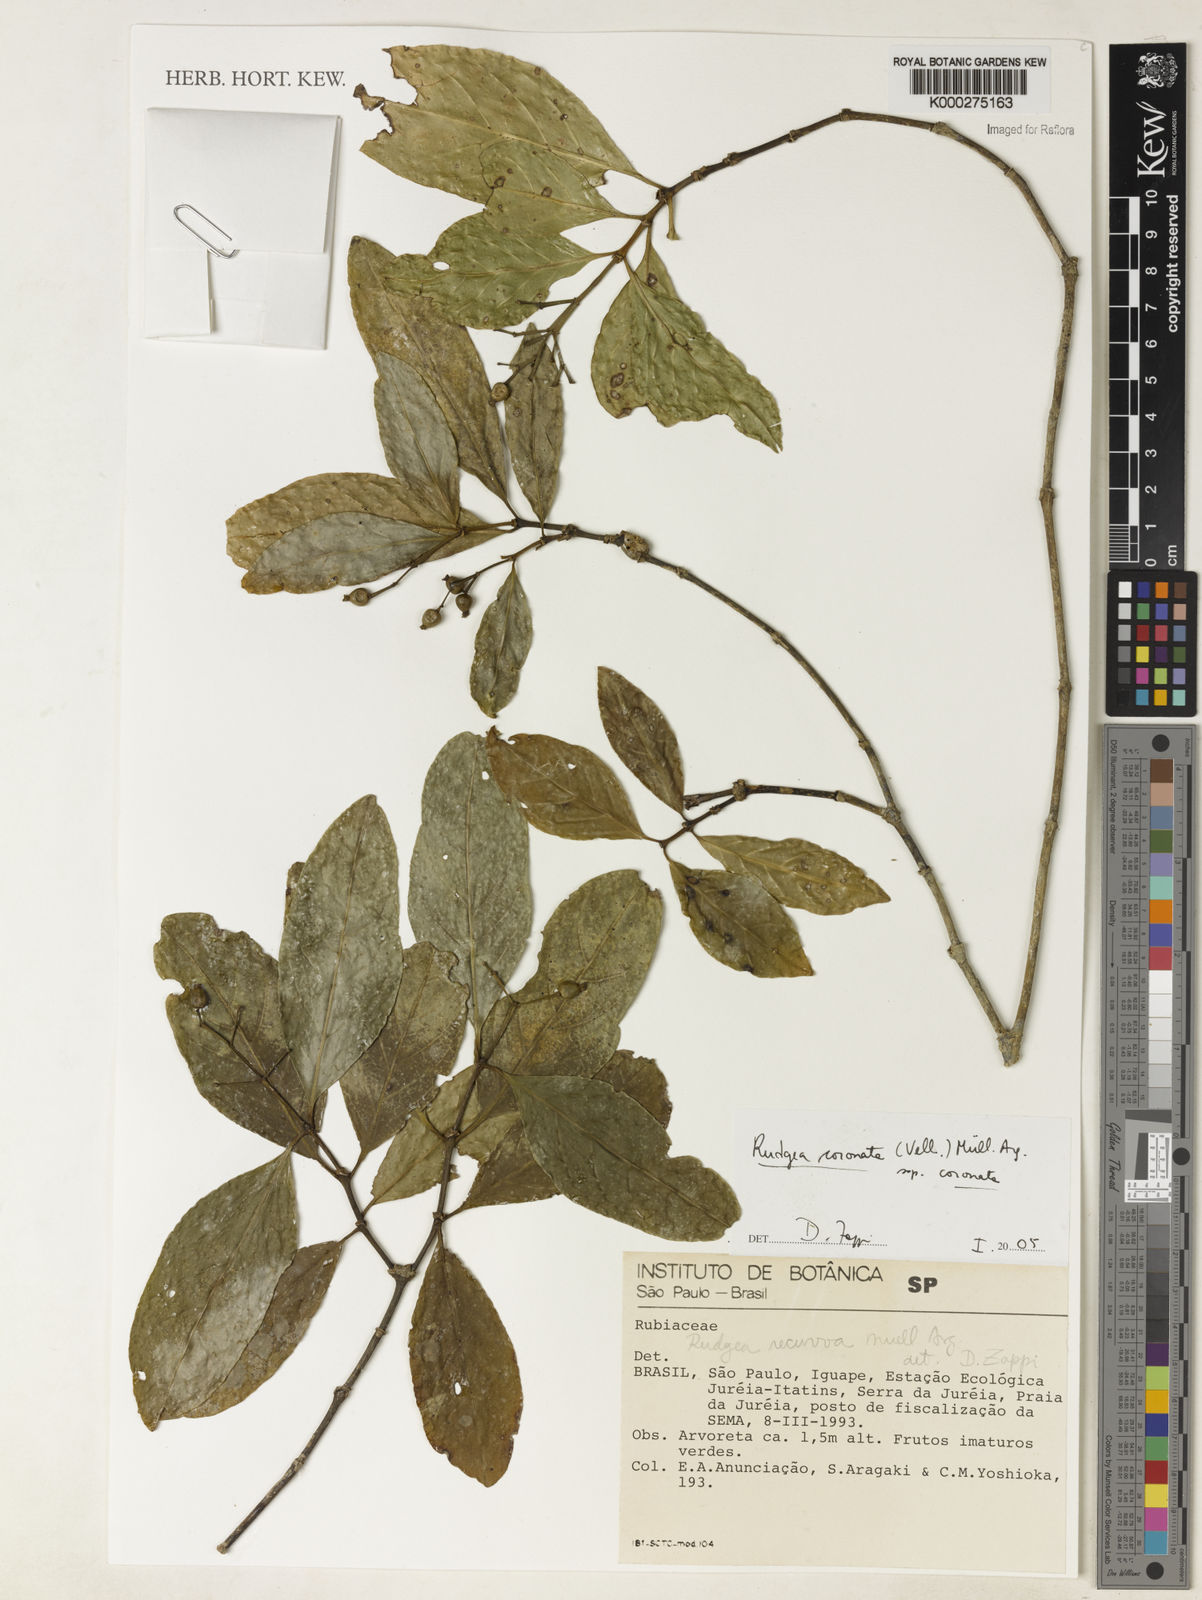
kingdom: Plantae
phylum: Tracheophyta
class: Magnoliopsida
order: Gentianales
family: Rubiaceae
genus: Rudgea
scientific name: Rudgea coronata
